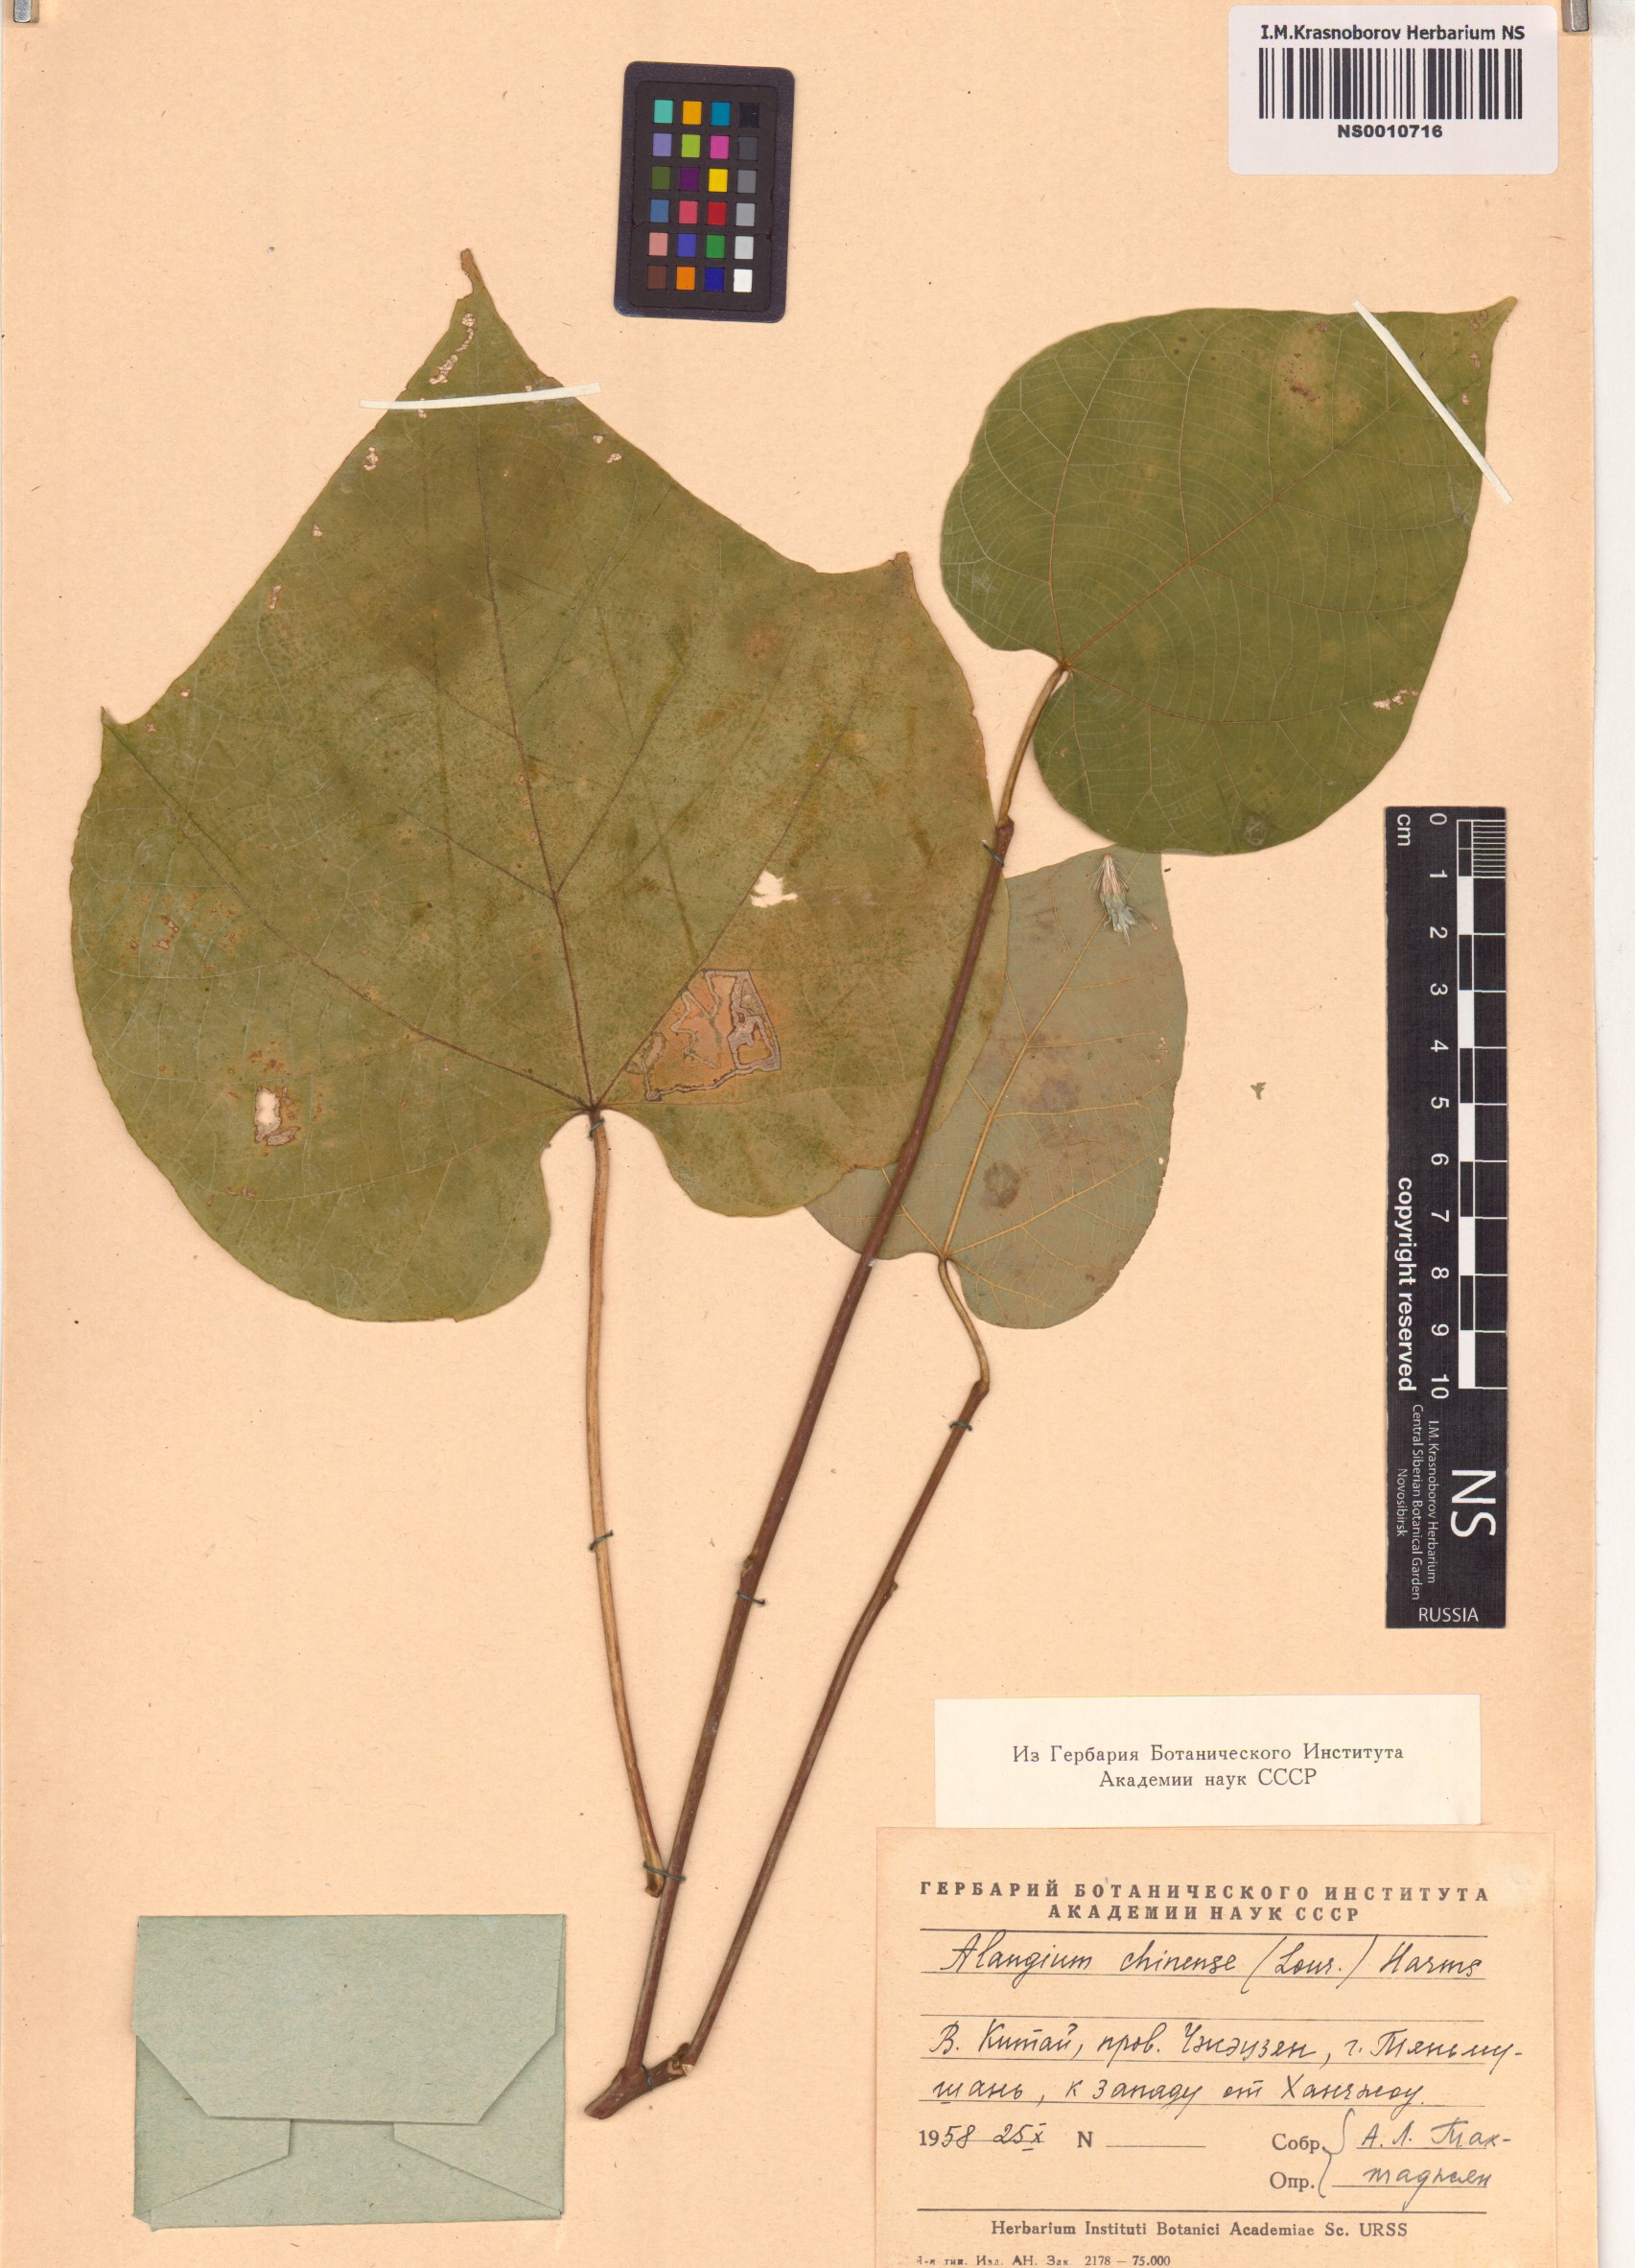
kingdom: Plantae
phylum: Tracheophyta
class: Magnoliopsida
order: Cornales
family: Cornaceae
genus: Alangium
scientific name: Alangium chinense
